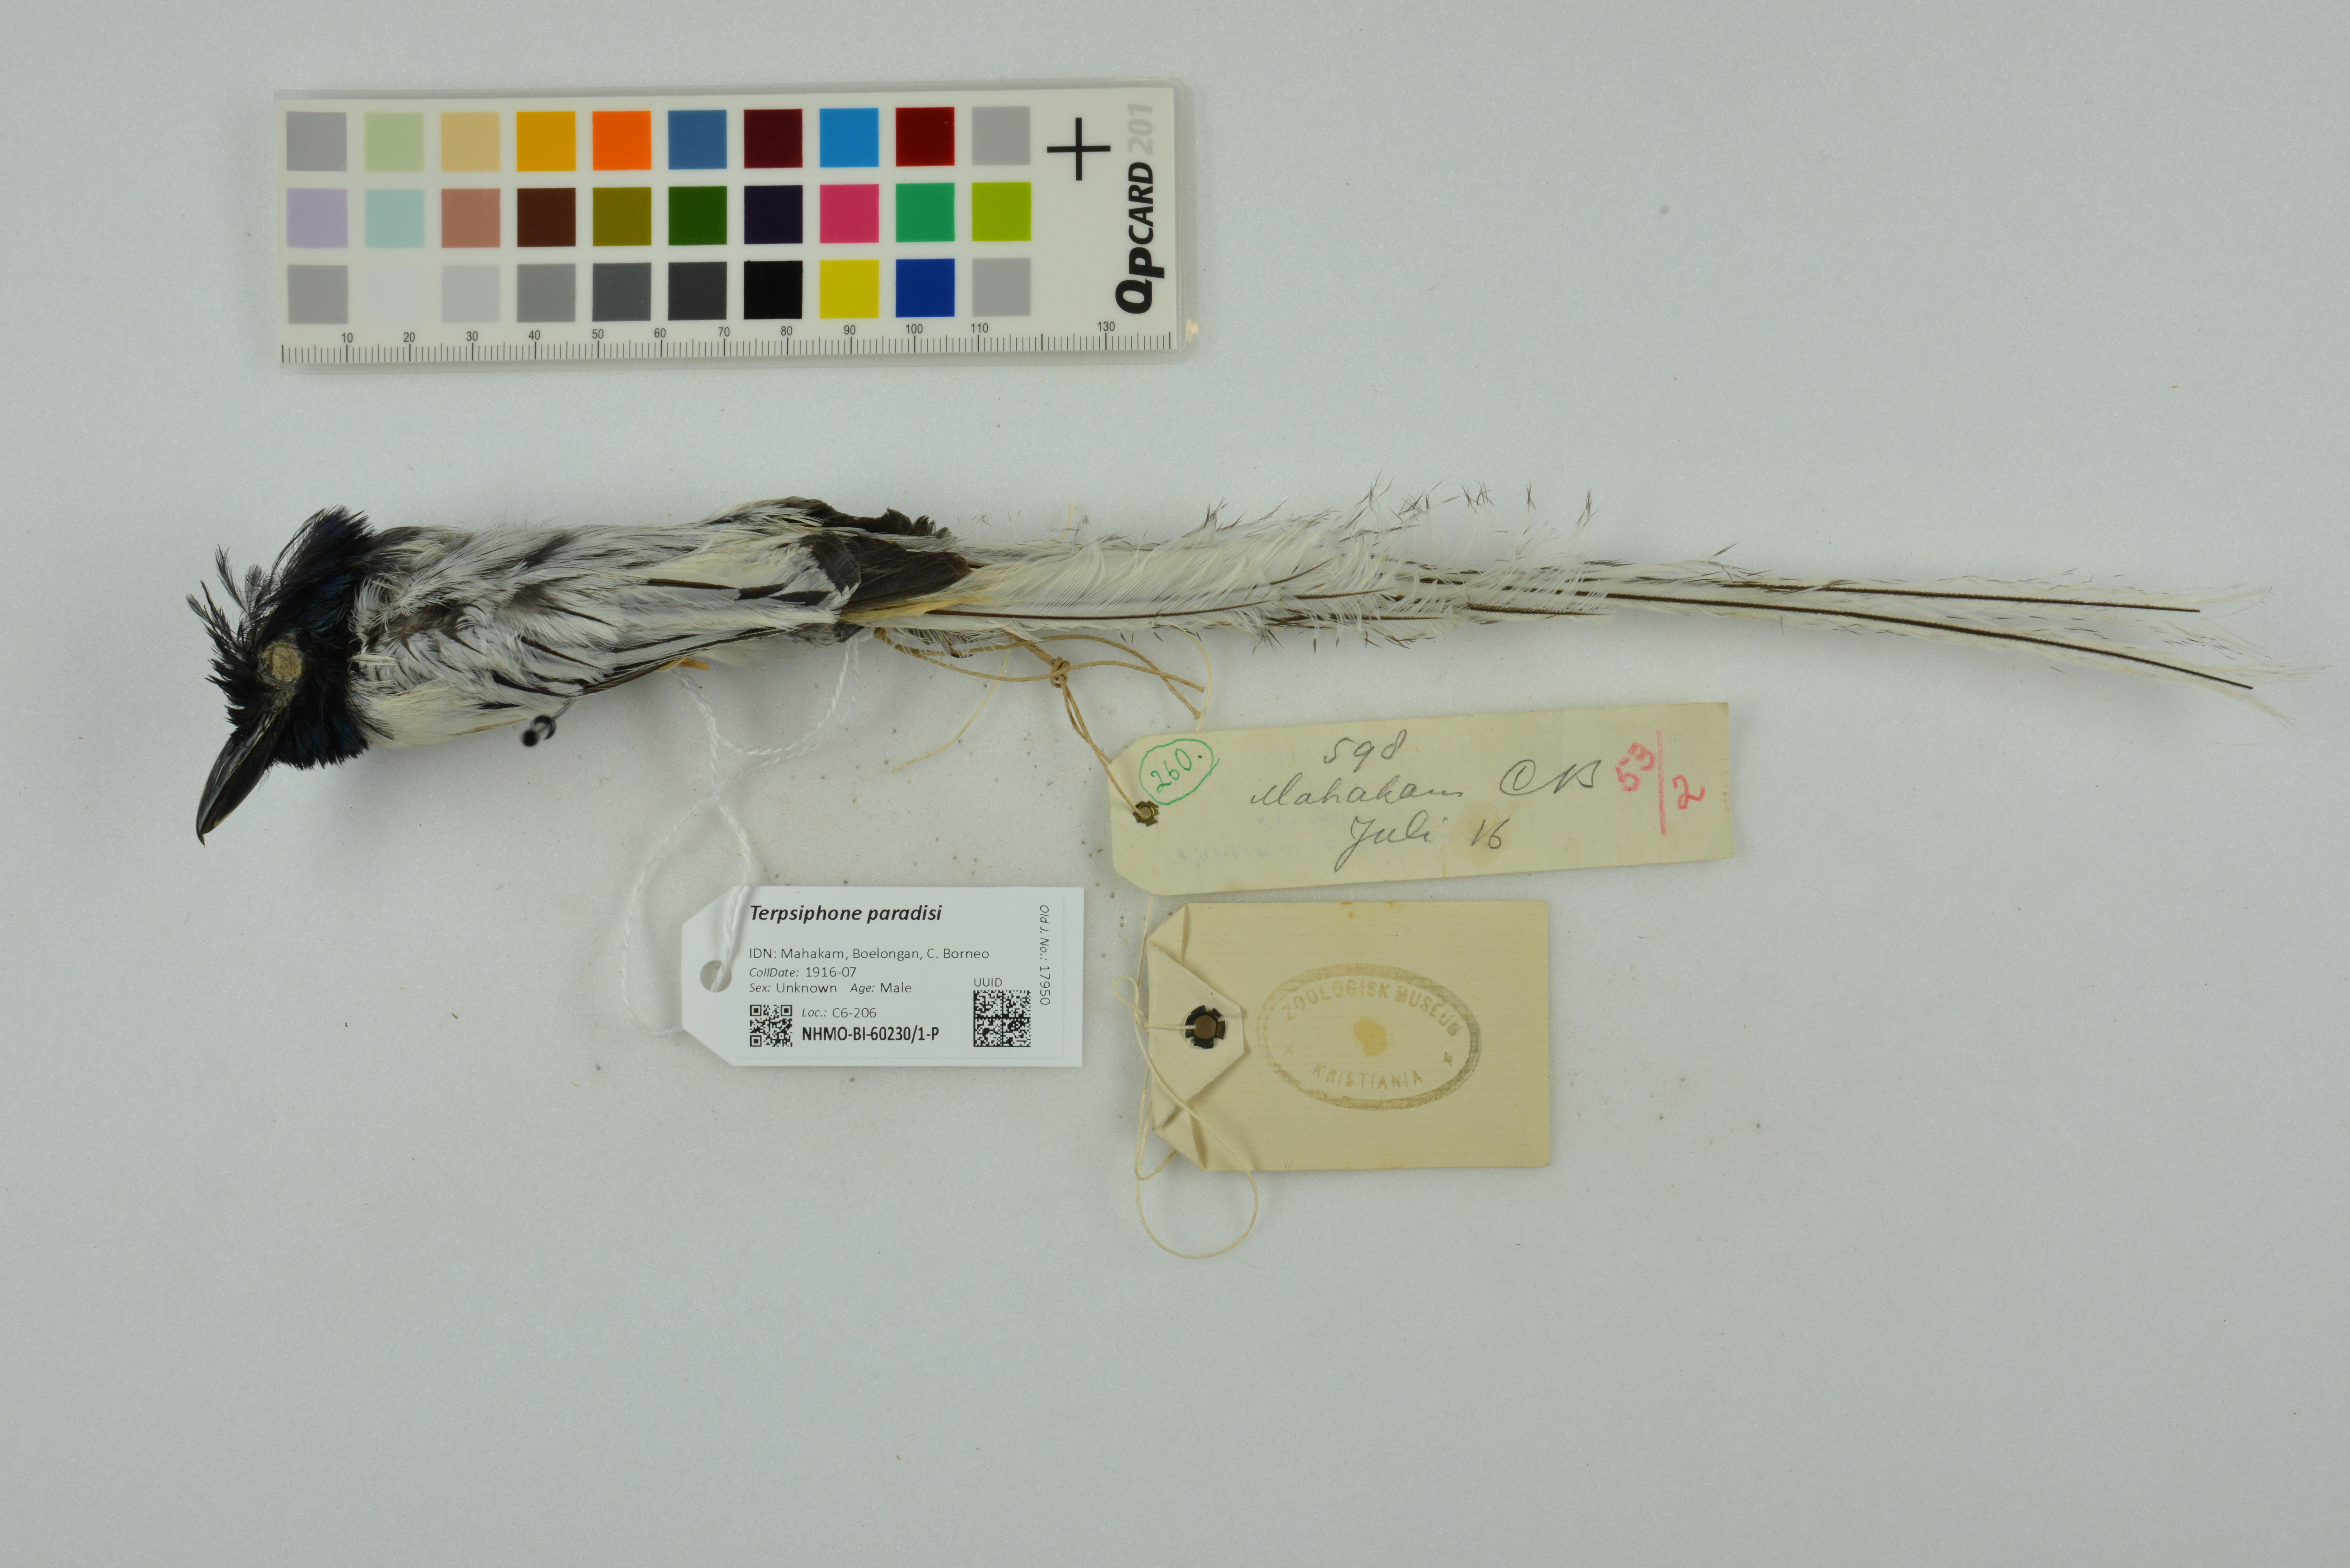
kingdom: Animalia
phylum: Chordata
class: Aves
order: Passeriformes
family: Monarchidae
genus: Terpsiphone
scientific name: Terpsiphone paradisi
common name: Indian paradise flycatcher
